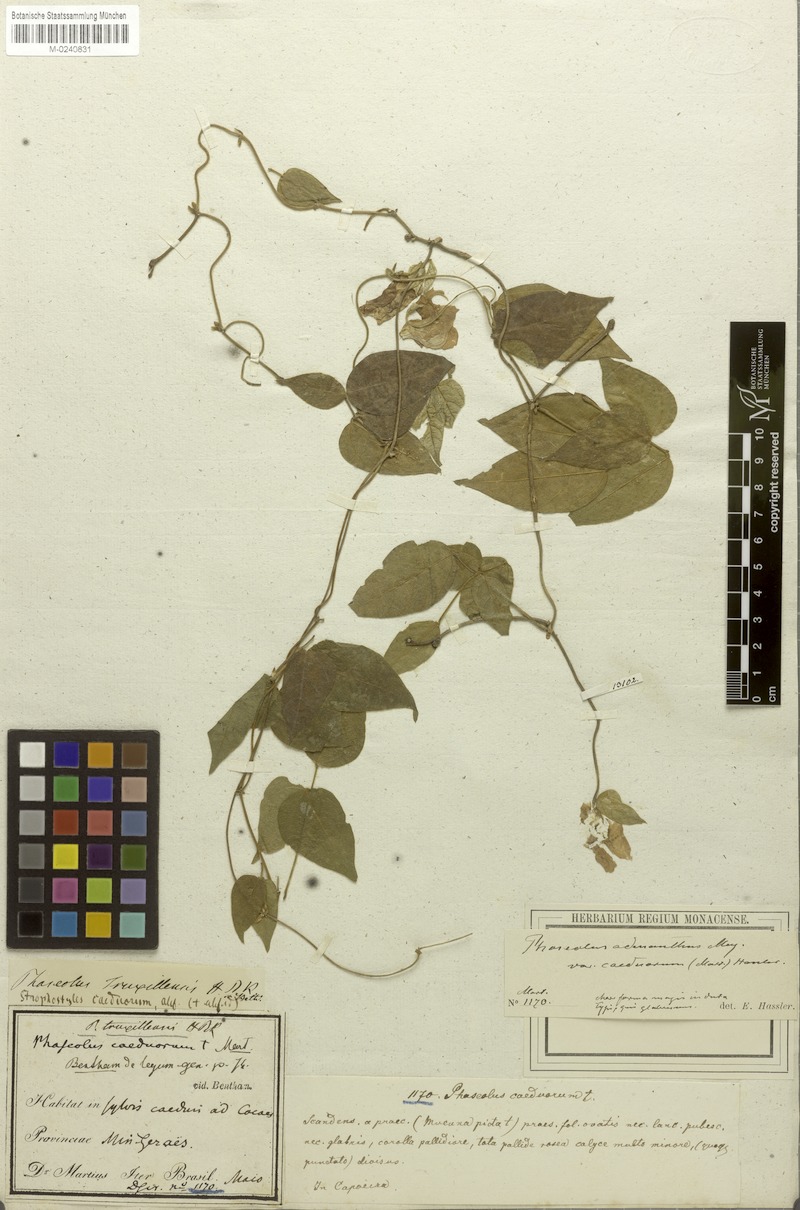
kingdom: Plantae
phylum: Tracheophyta
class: Magnoliopsida
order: Fabales
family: Fabaceae
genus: Leptospron
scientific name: Leptospron adenanthum
